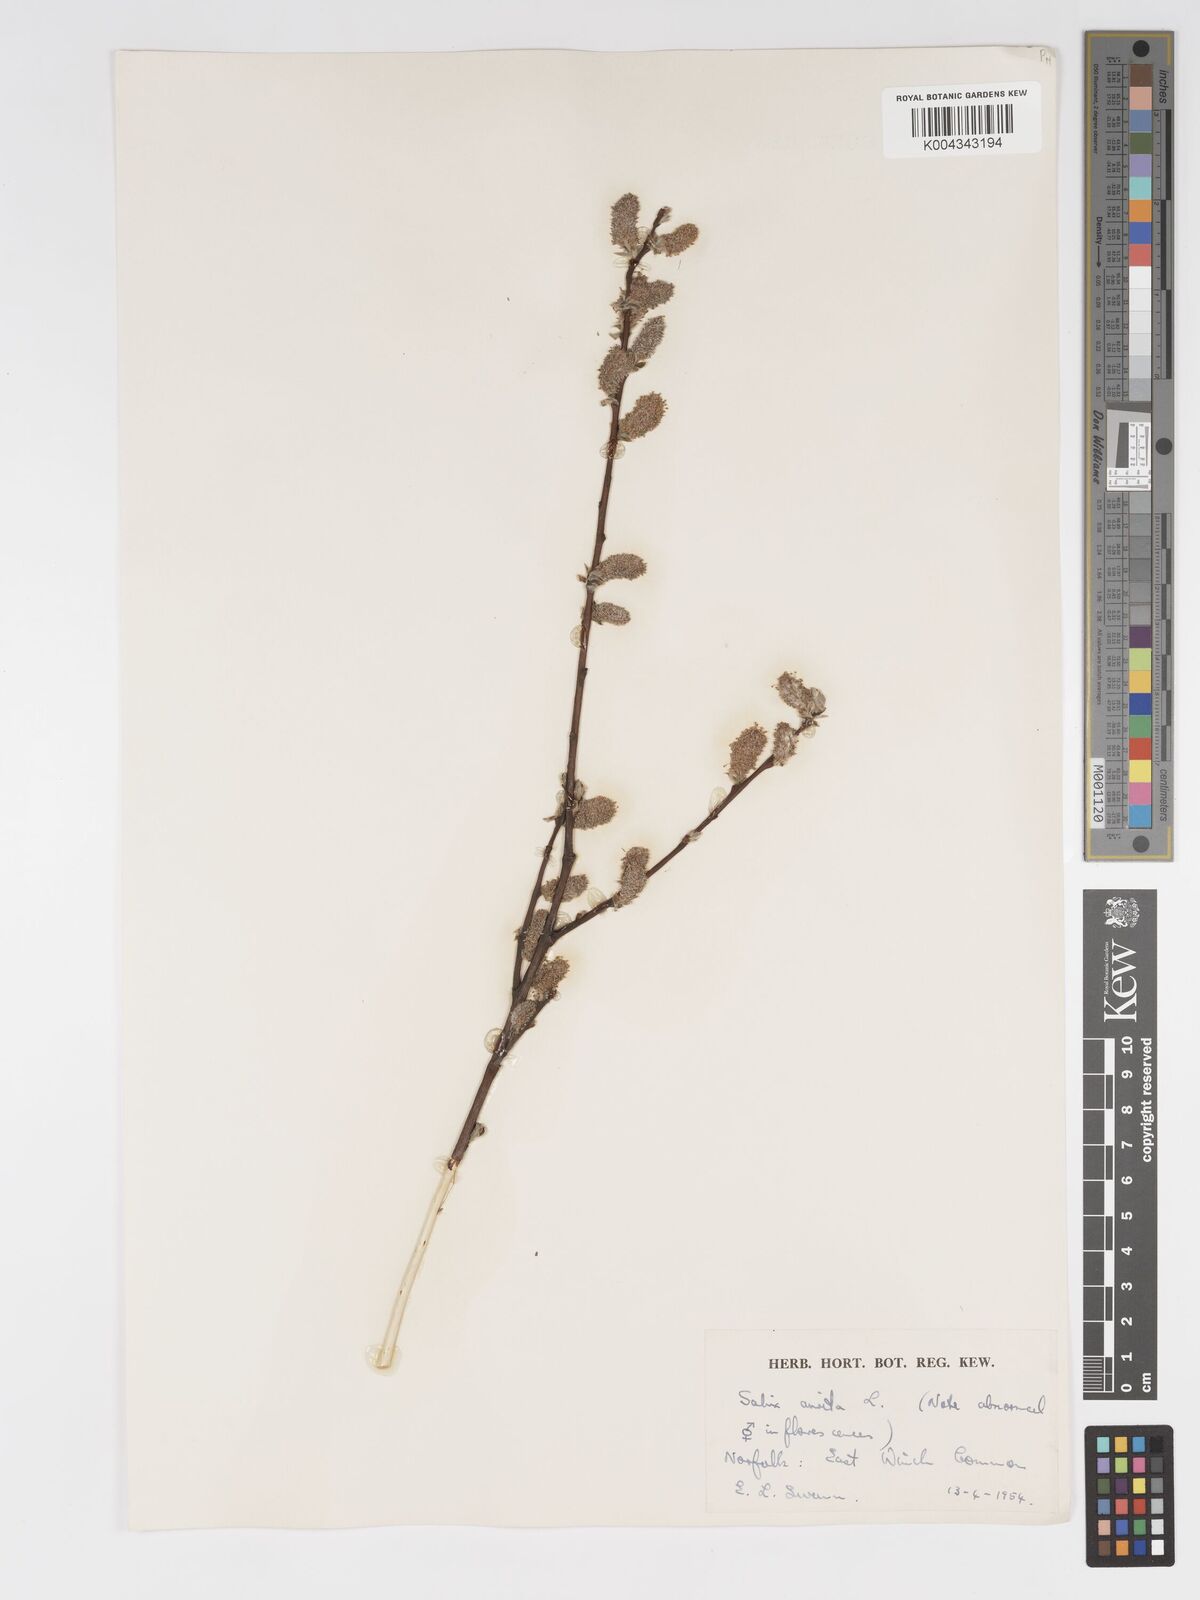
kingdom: Plantae
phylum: Tracheophyta
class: Magnoliopsida
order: Malpighiales
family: Salicaceae
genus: Salix
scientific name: Salix aurita
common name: Eared willow
